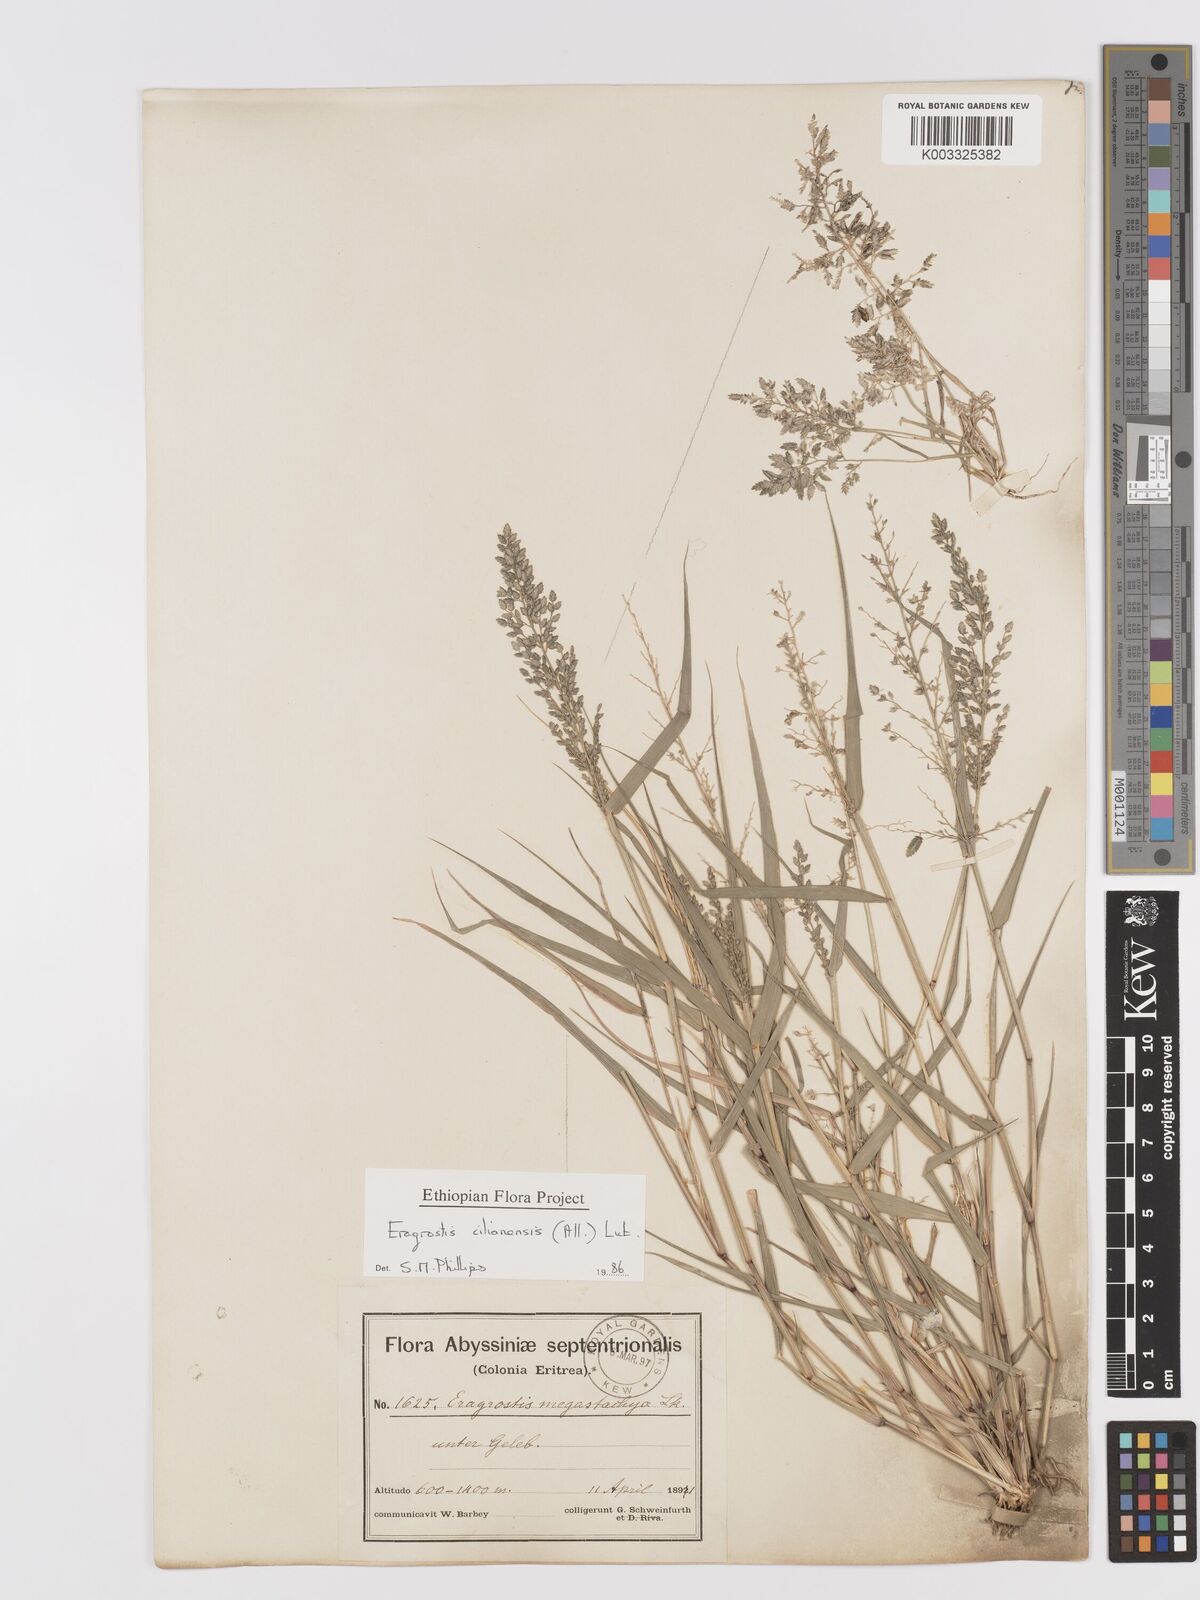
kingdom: Plantae
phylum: Tracheophyta
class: Liliopsida
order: Poales
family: Poaceae
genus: Eragrostis
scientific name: Eragrostis cilianensis
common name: Stinkgrass
